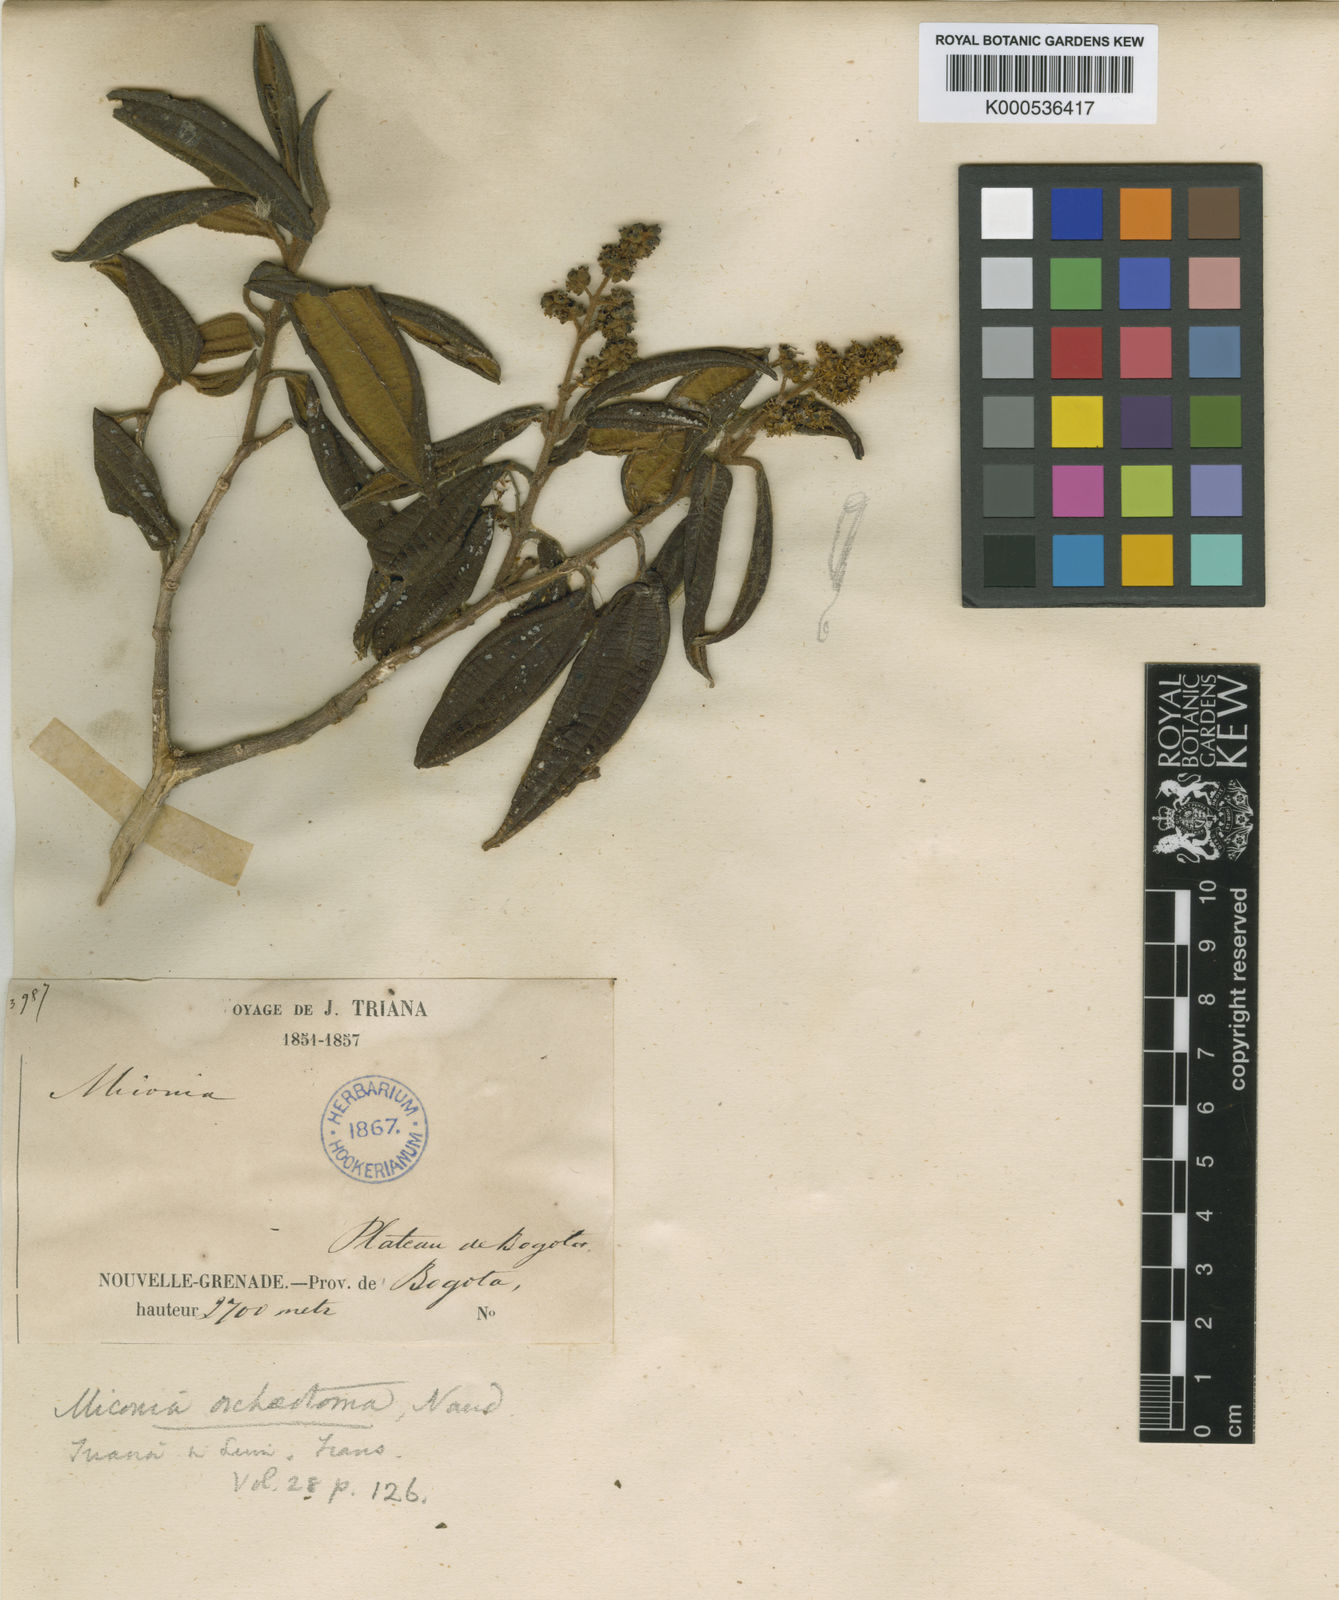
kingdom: Plantae
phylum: Tracheophyta
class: Magnoliopsida
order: Myrtales
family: Melastomataceae
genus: Miconia
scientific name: Miconia orcheotoma
